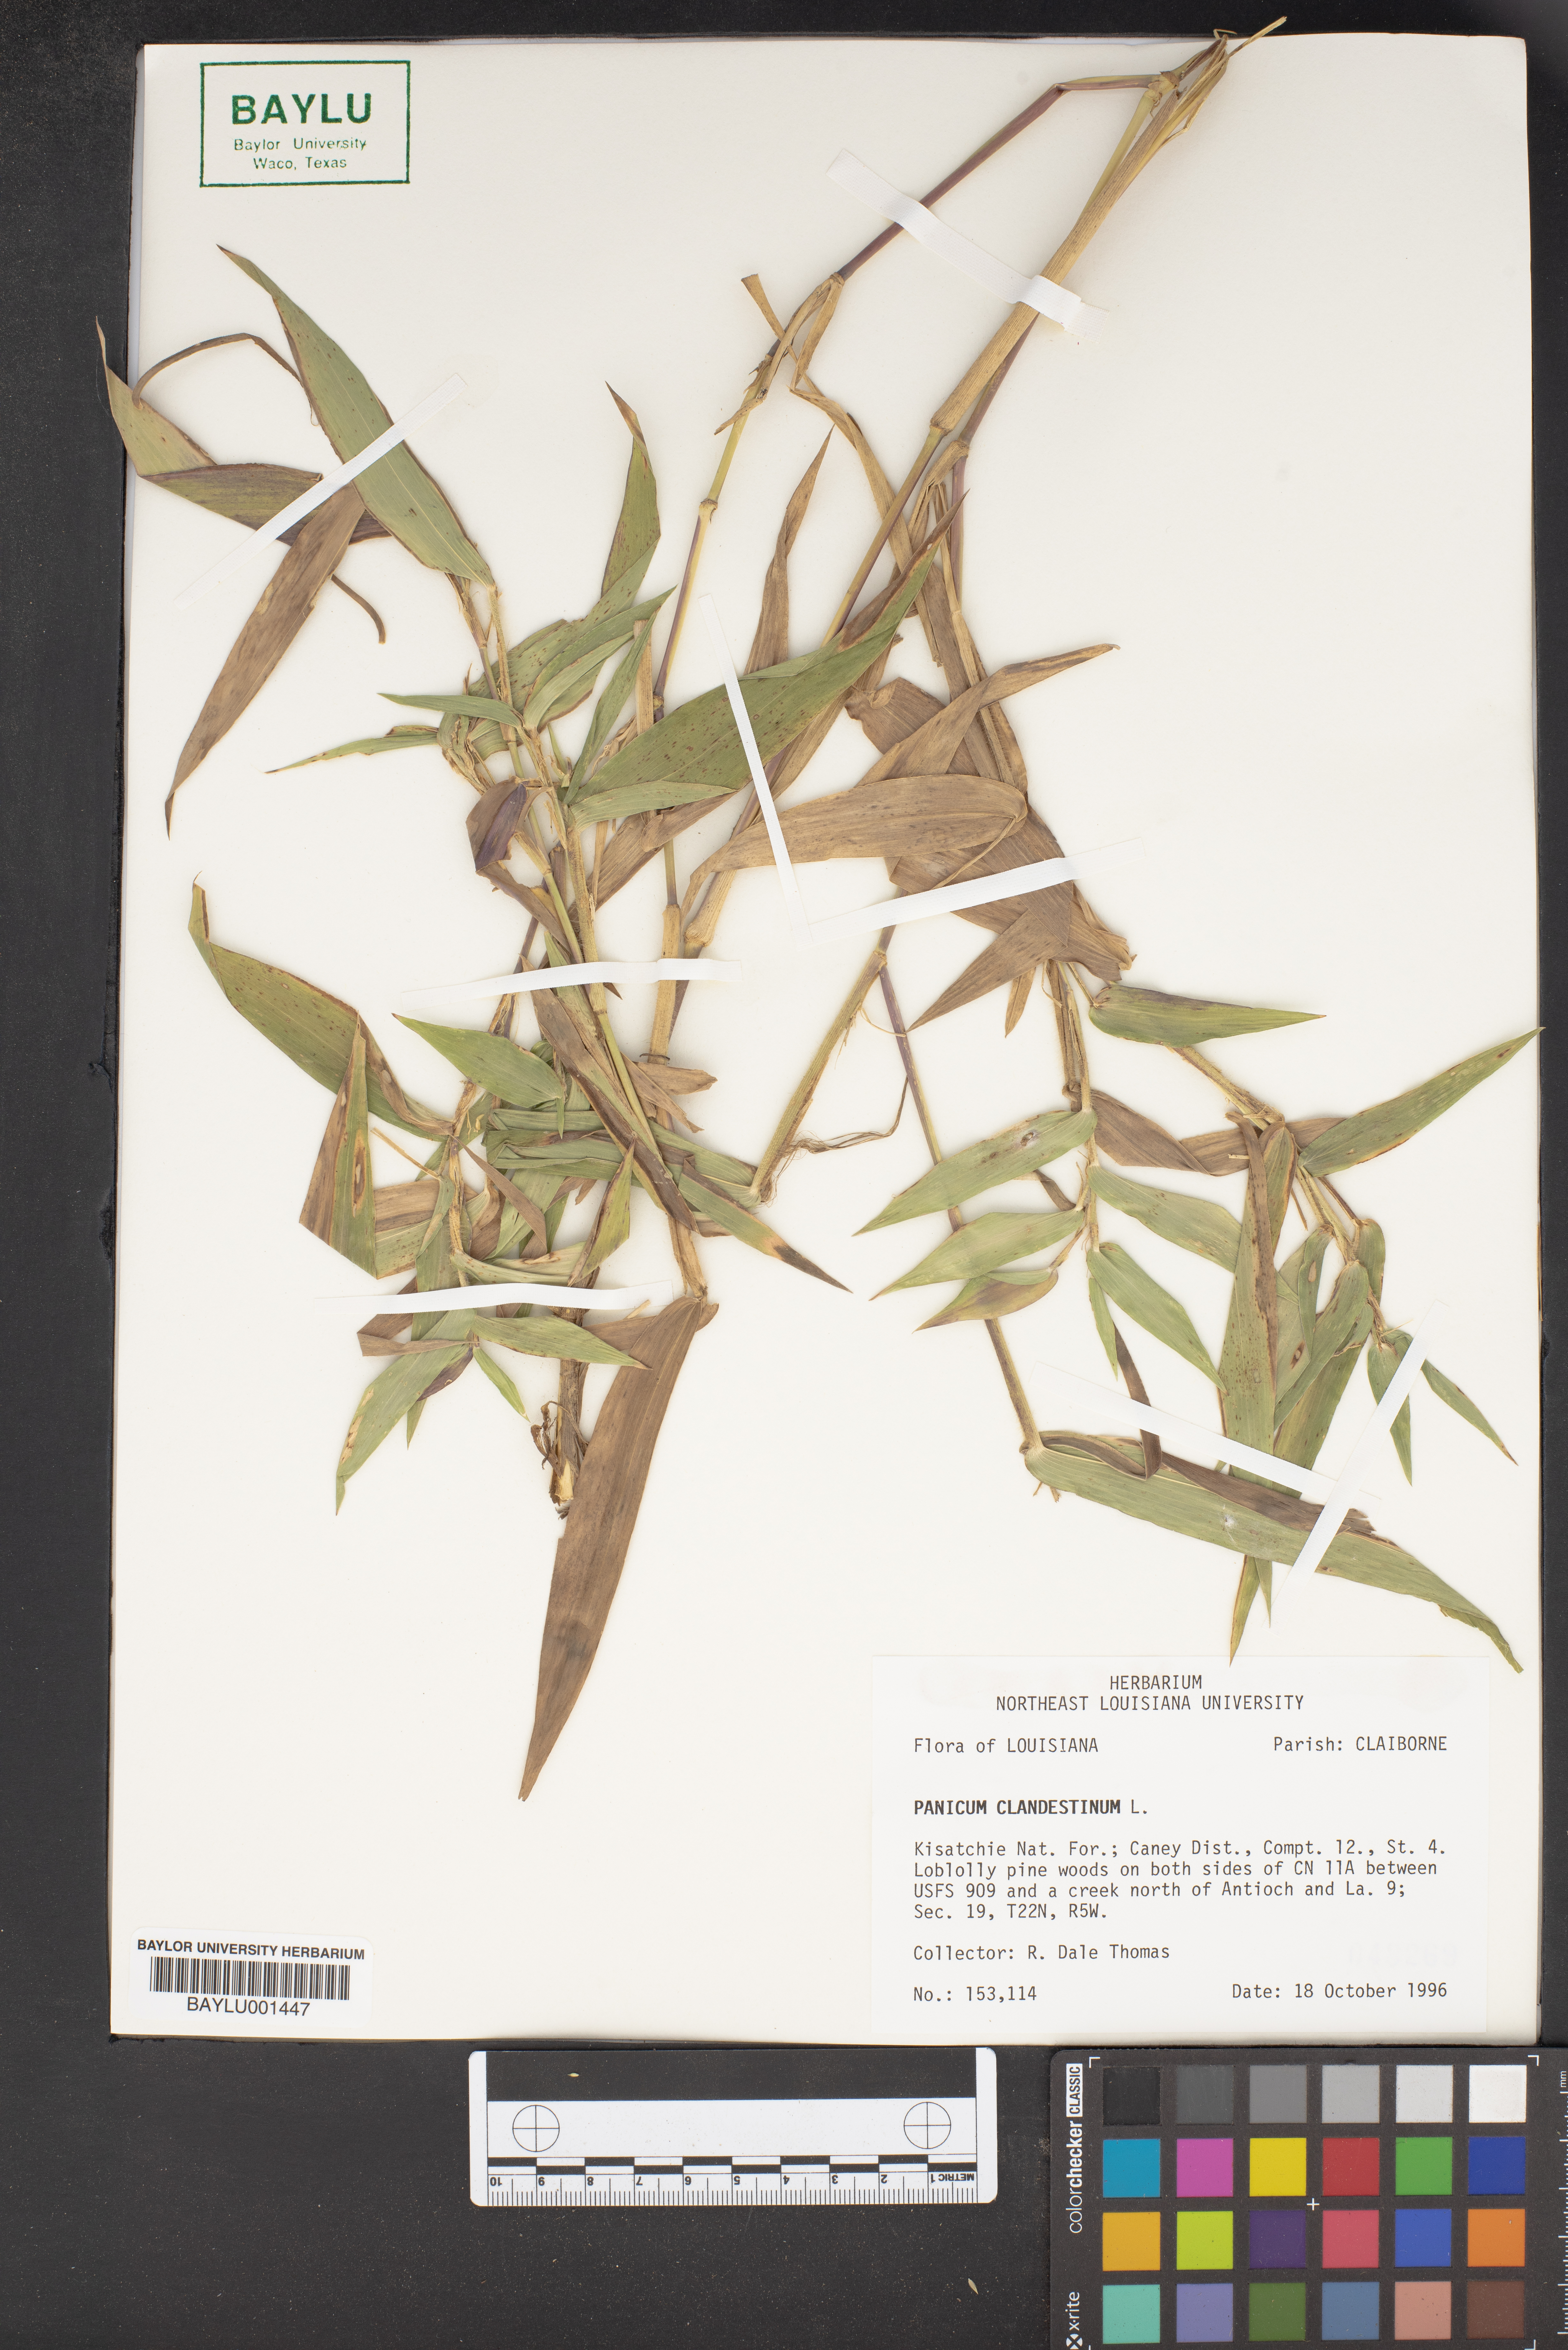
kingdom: Plantae
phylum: Tracheophyta
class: Liliopsida
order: Poales
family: Poaceae
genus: Dichanthelium
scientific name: Dichanthelium clandestinum
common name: Deer-tongue grass
